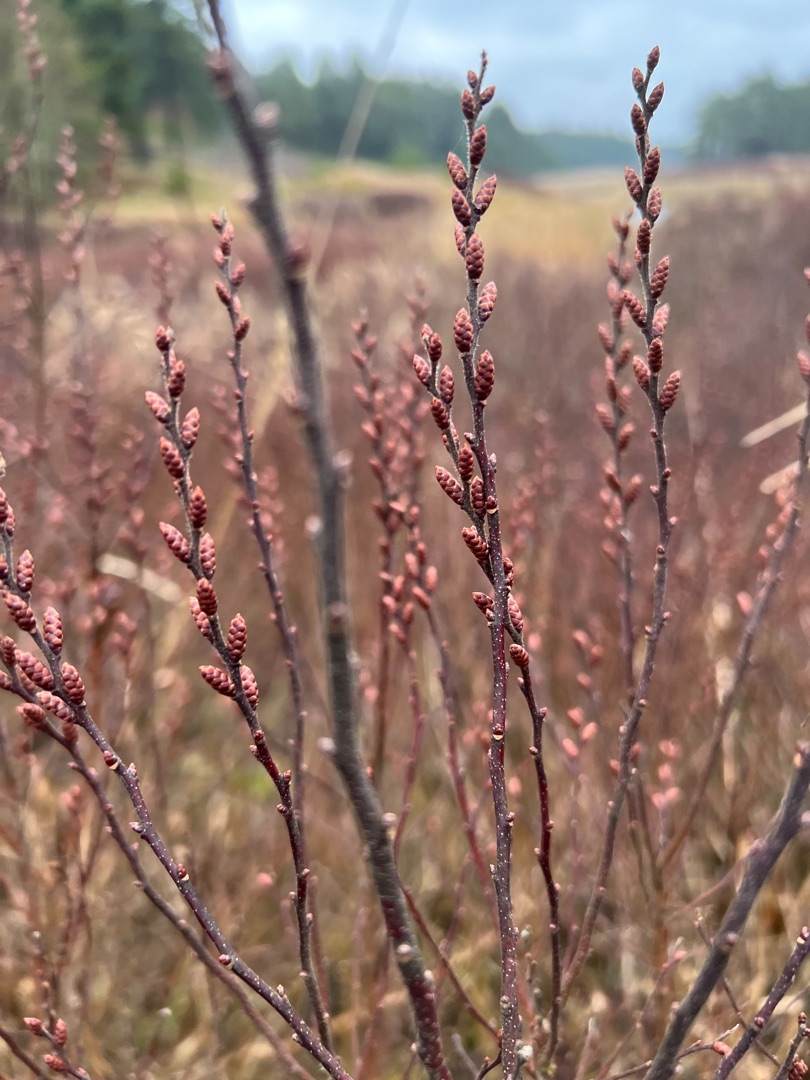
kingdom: Plantae
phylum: Tracheophyta
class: Magnoliopsida
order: Fagales
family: Myricaceae
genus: Myrica
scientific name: Myrica gale
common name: Pors
